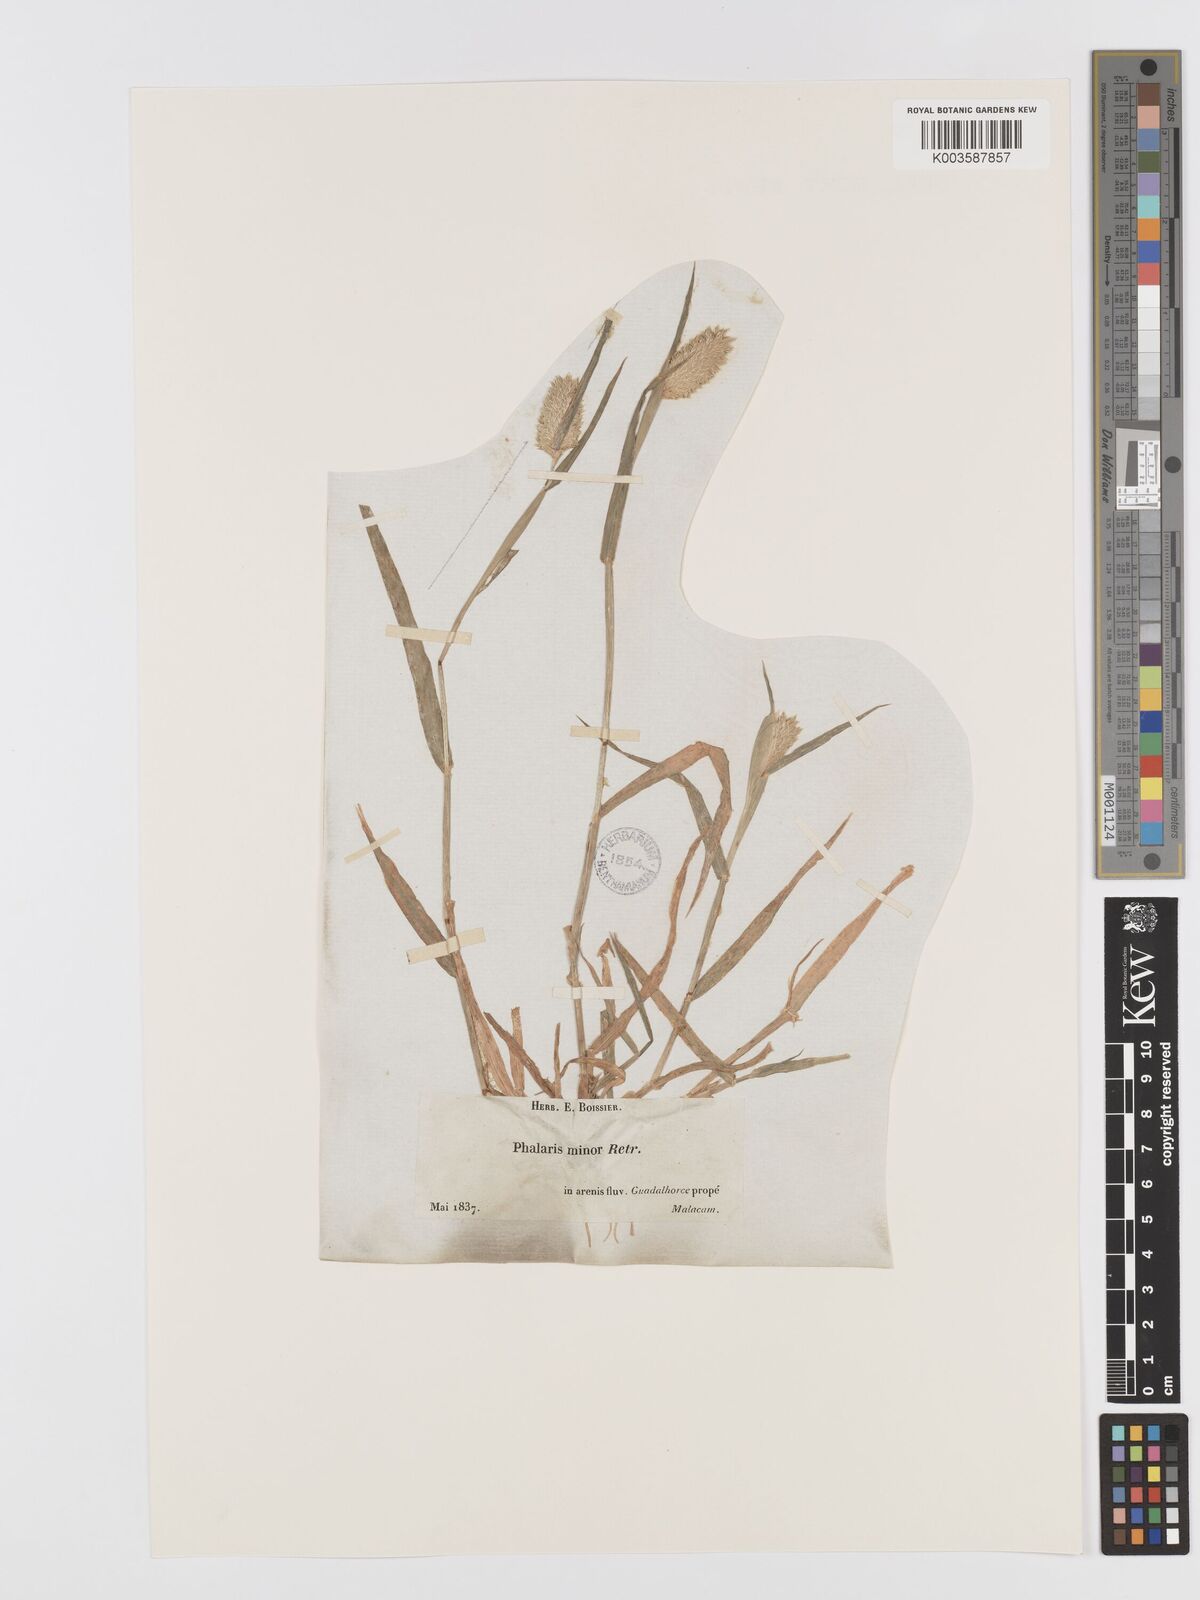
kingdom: Plantae
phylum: Tracheophyta
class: Liliopsida
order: Poales
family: Poaceae
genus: Phalaris
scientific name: Phalaris minor
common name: Littleseed canarygrass
